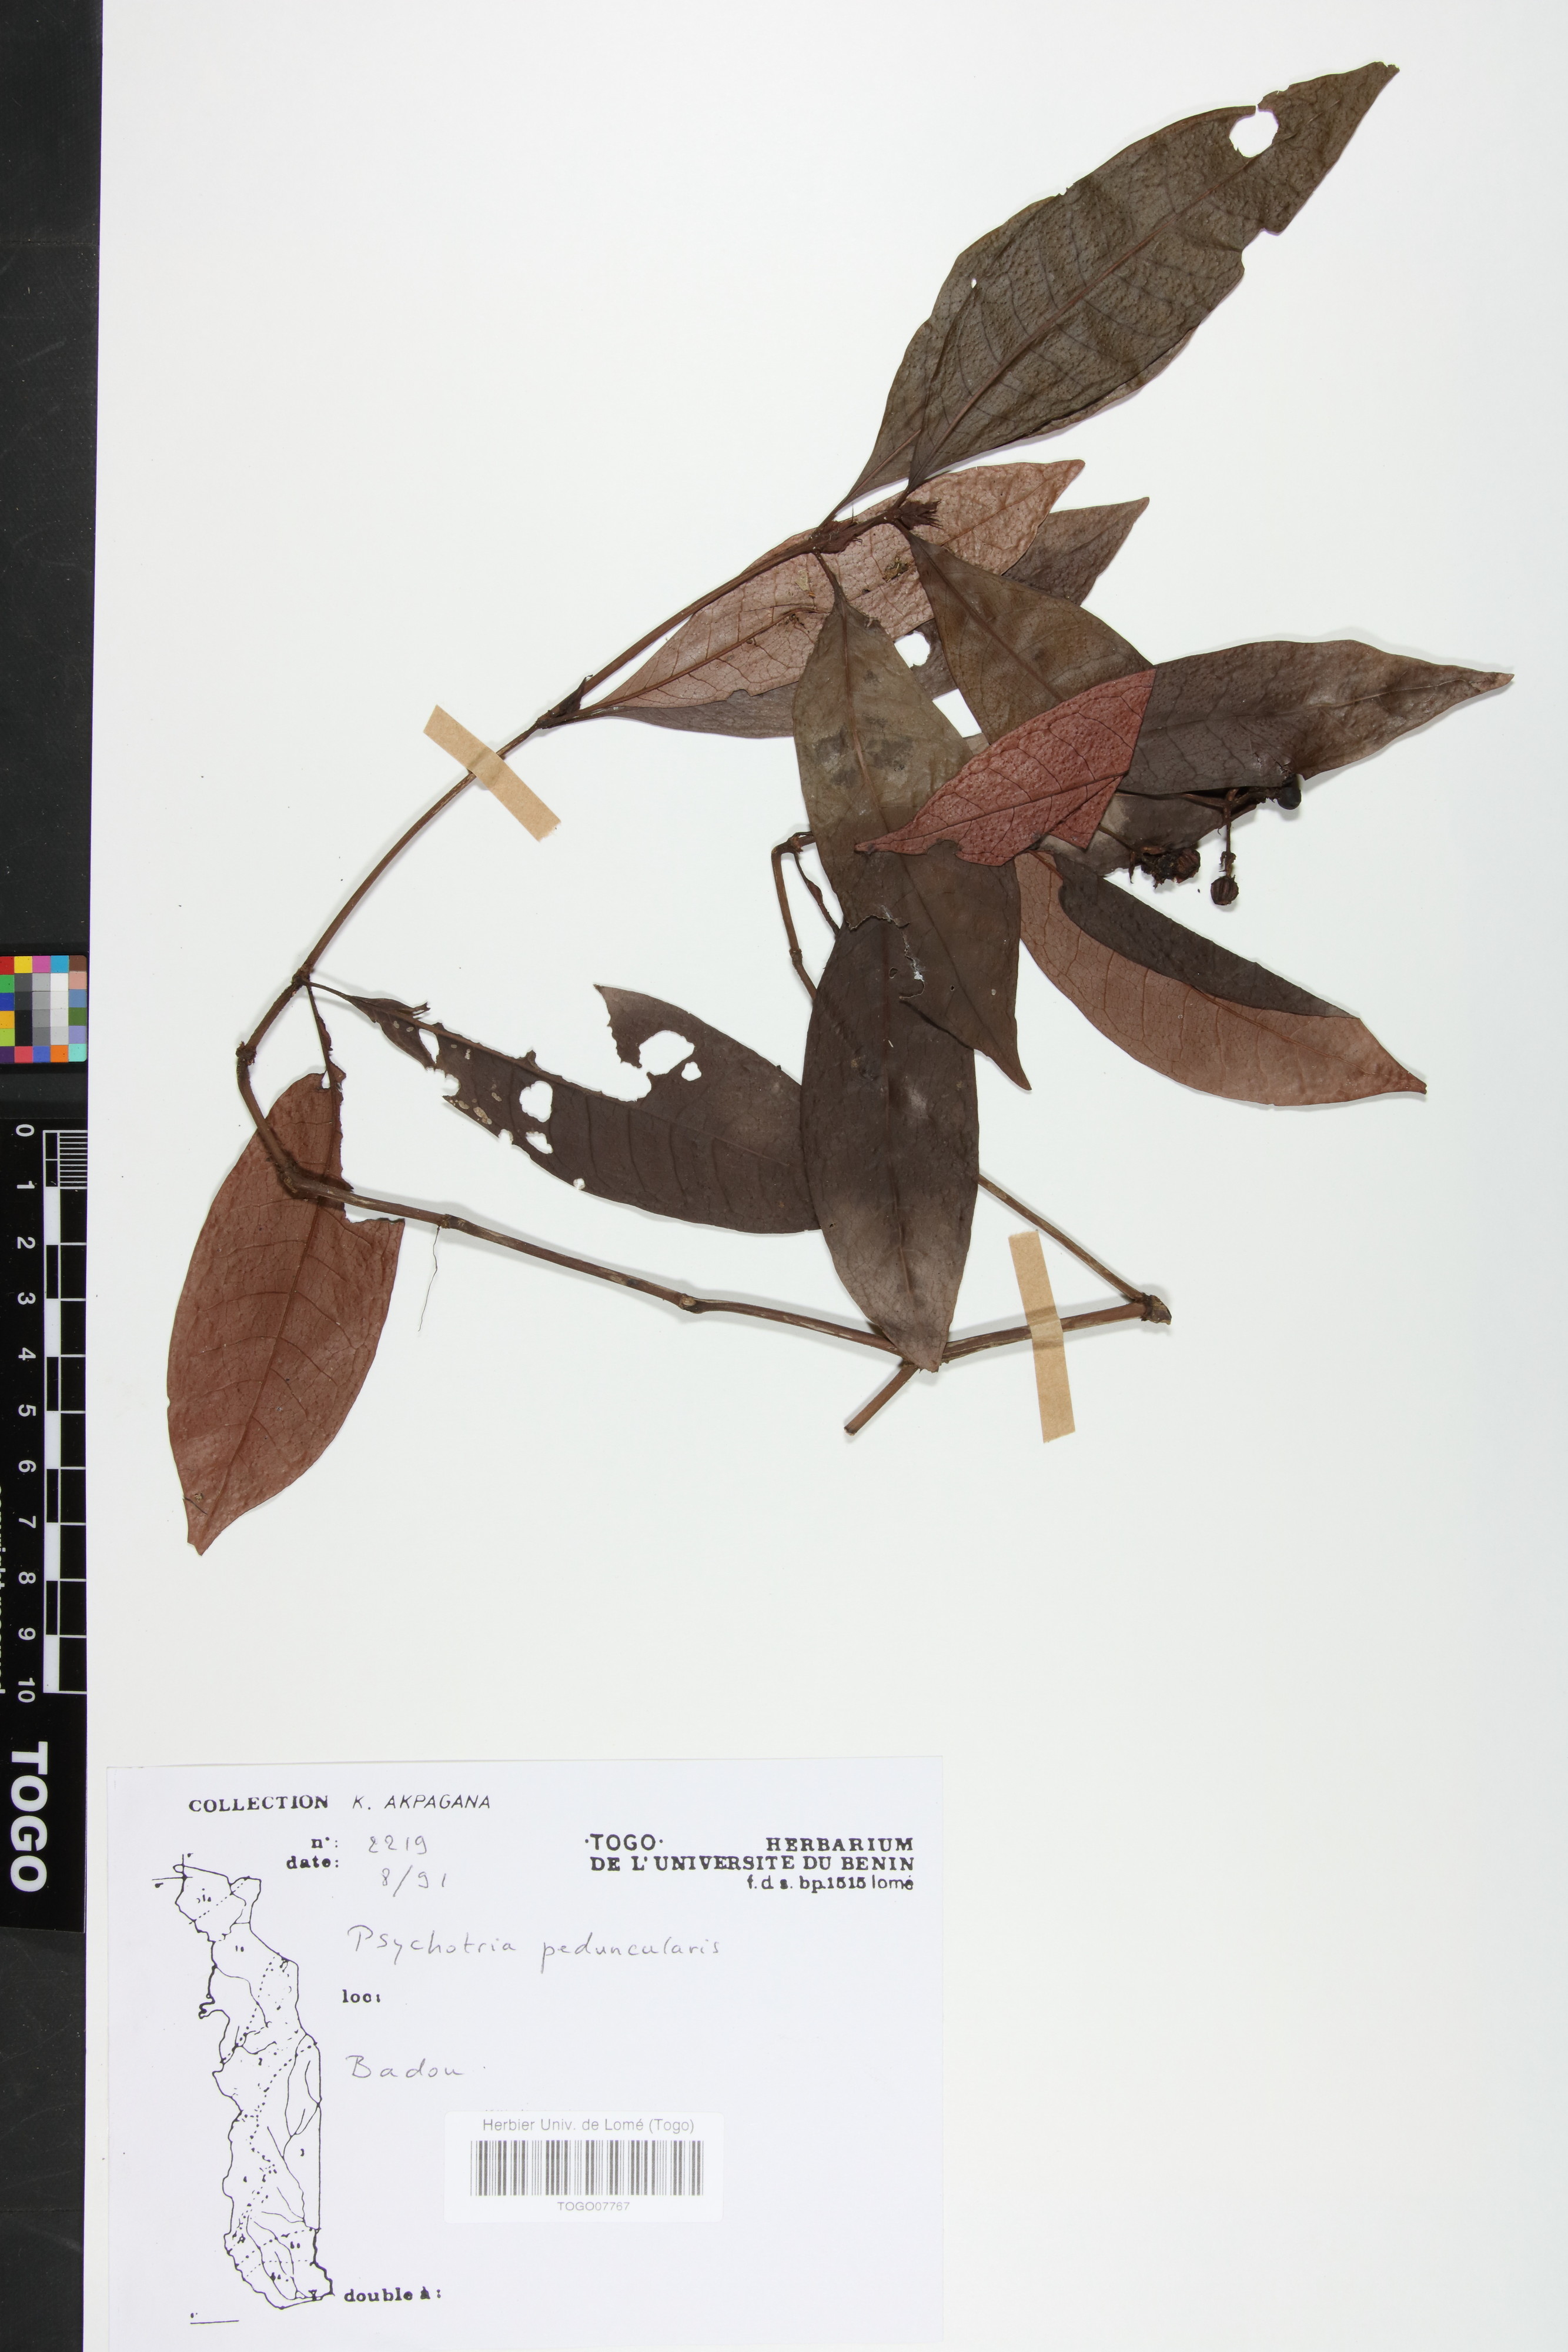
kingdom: Plantae
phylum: Tracheophyta
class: Magnoliopsida
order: Gentianales
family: Rubiaceae
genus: Psychotria
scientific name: Psychotria peduncularis
